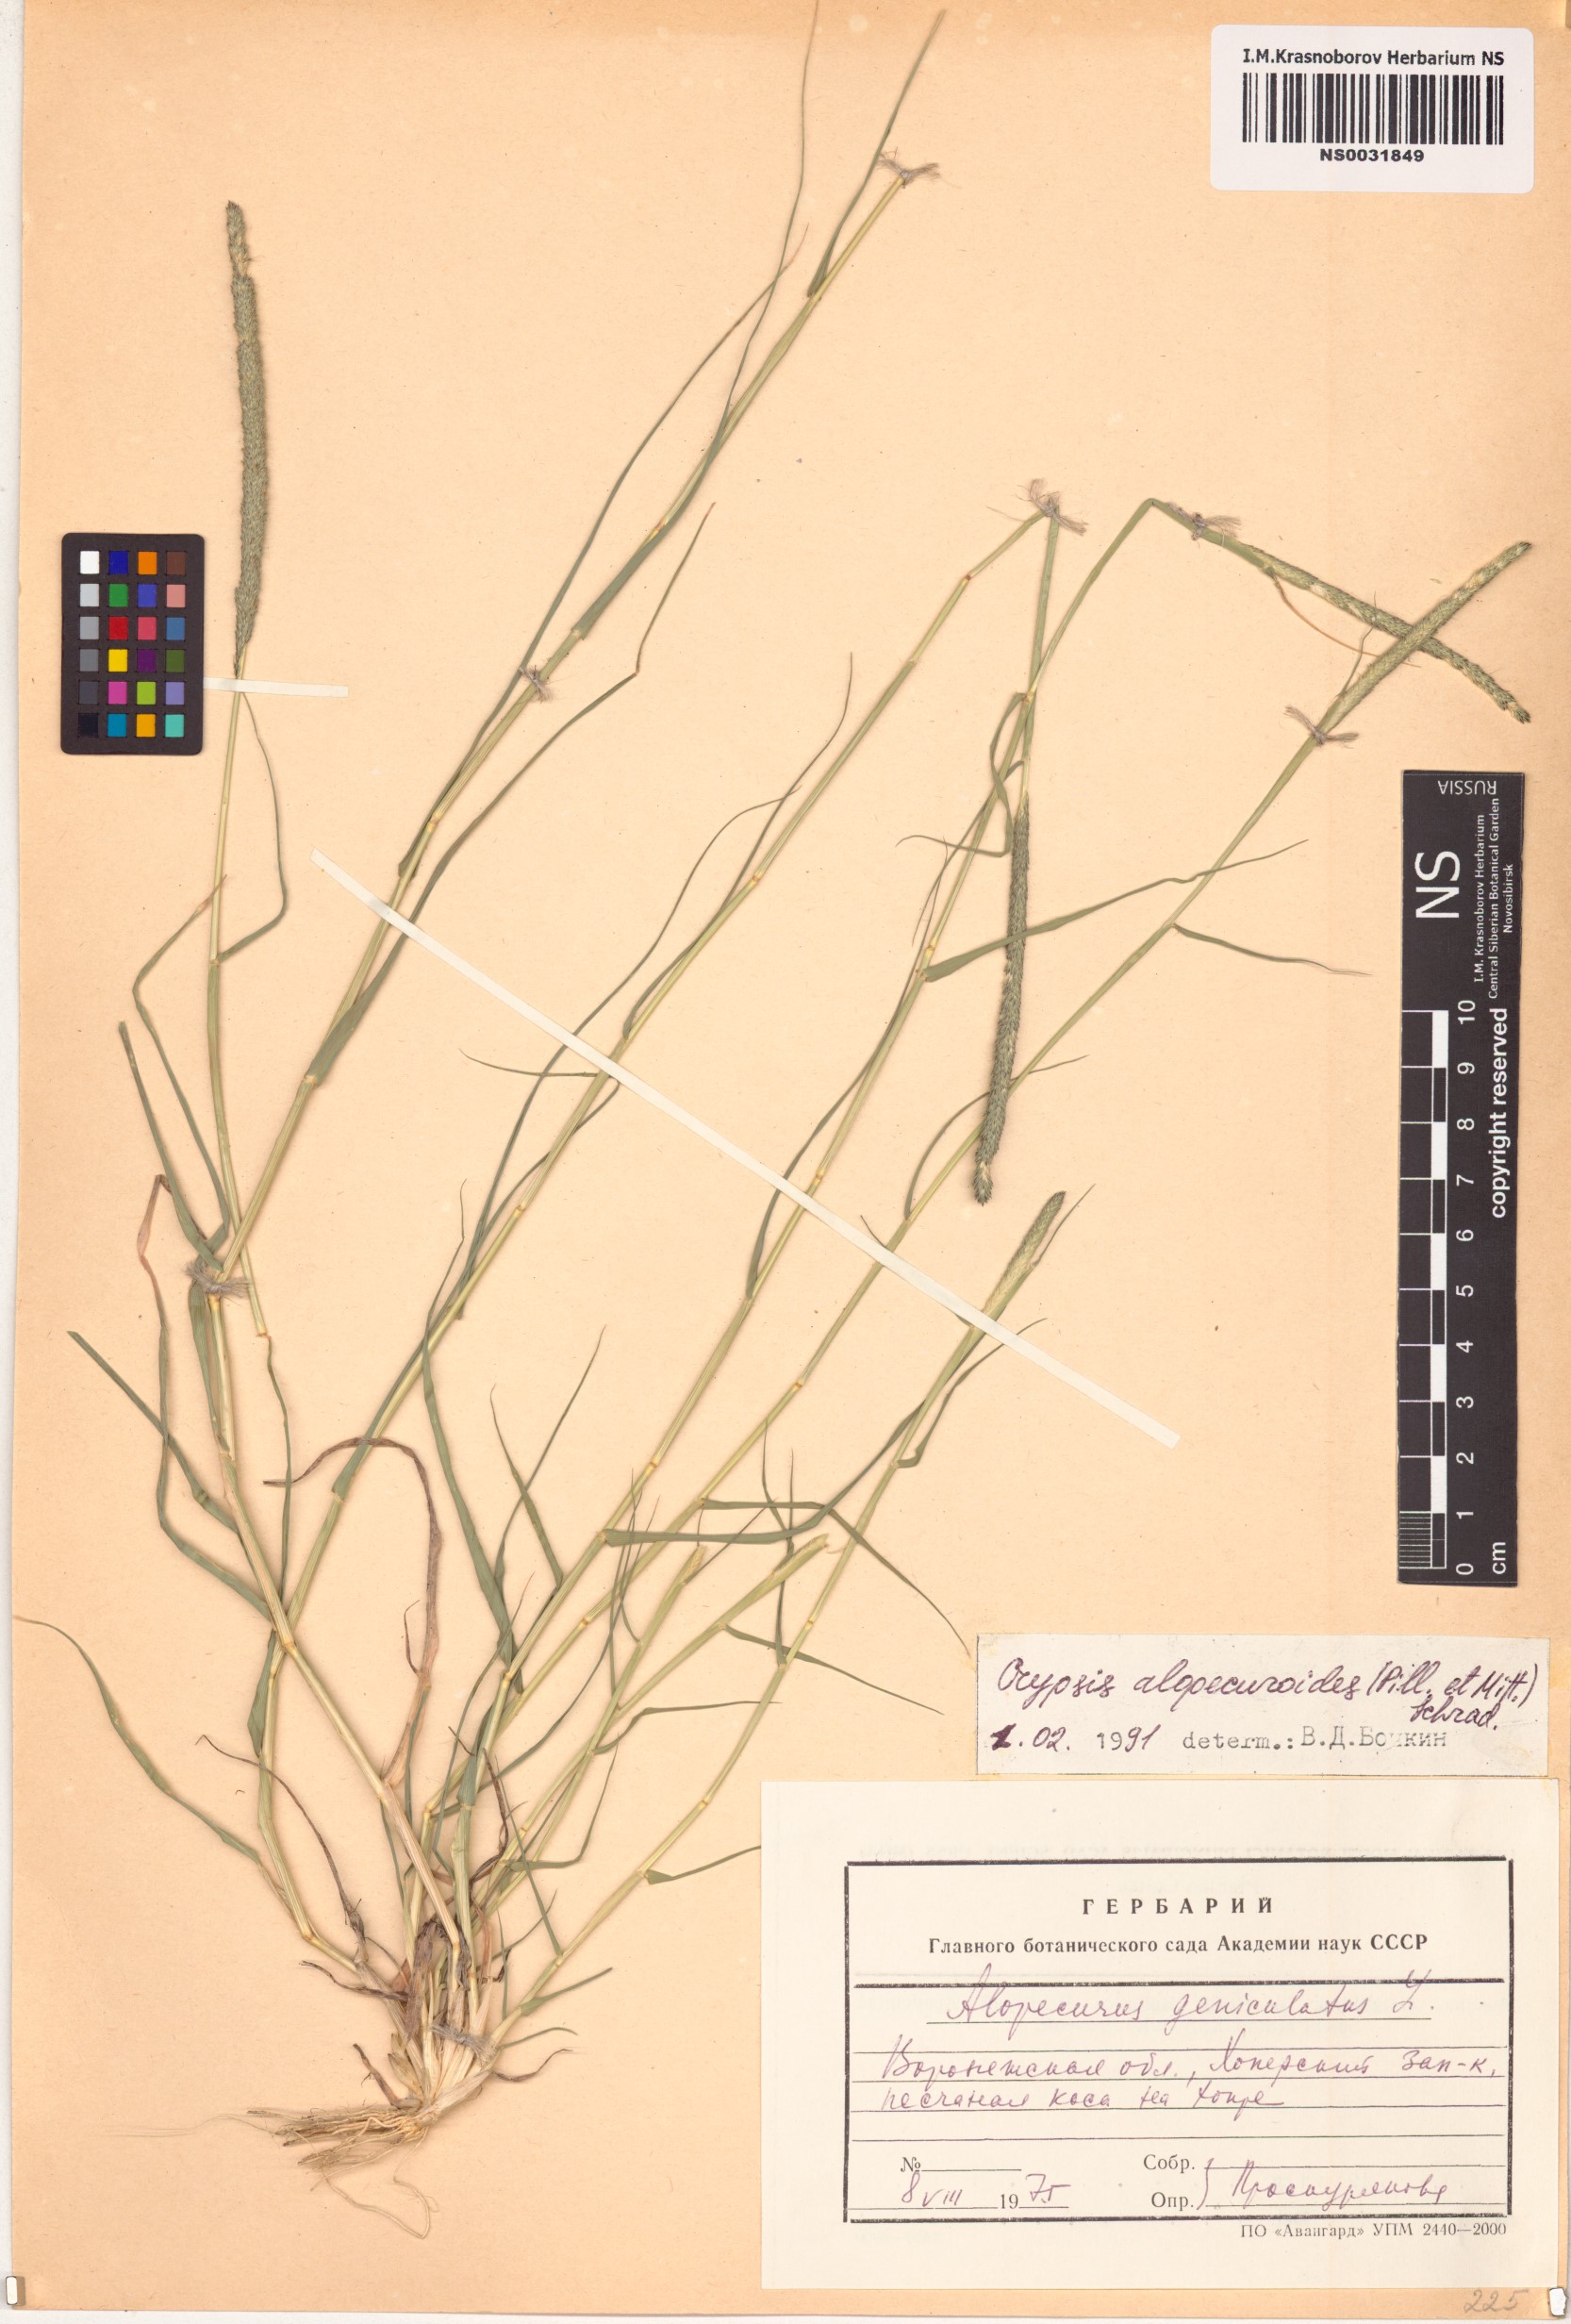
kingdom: Plantae
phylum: Tracheophyta
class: Liliopsida
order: Poales
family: Poaceae
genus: Sporobolus
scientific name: Sporobolus alopecuroides
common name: Foxtail pricklegrass
